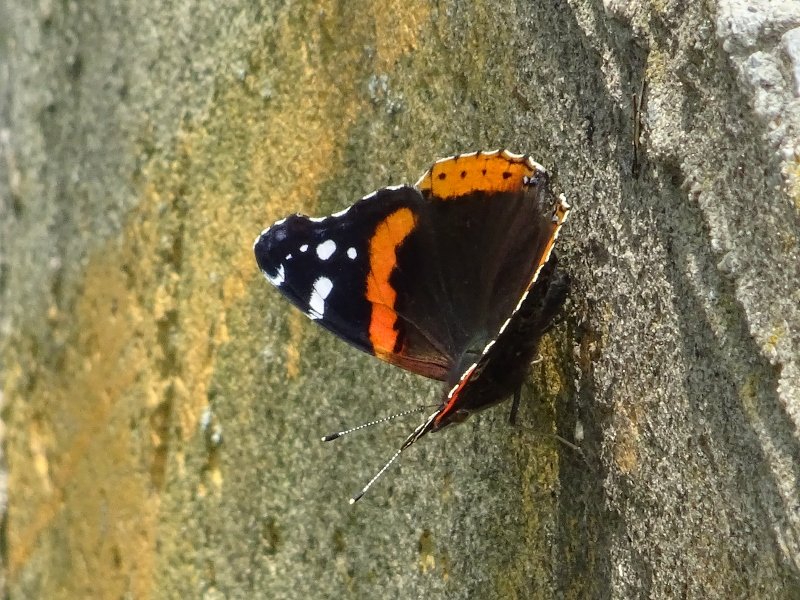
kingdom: Animalia
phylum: Arthropoda
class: Insecta
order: Lepidoptera
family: Nymphalidae
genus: Vanessa
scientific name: Vanessa atalanta
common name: Red Admiral
